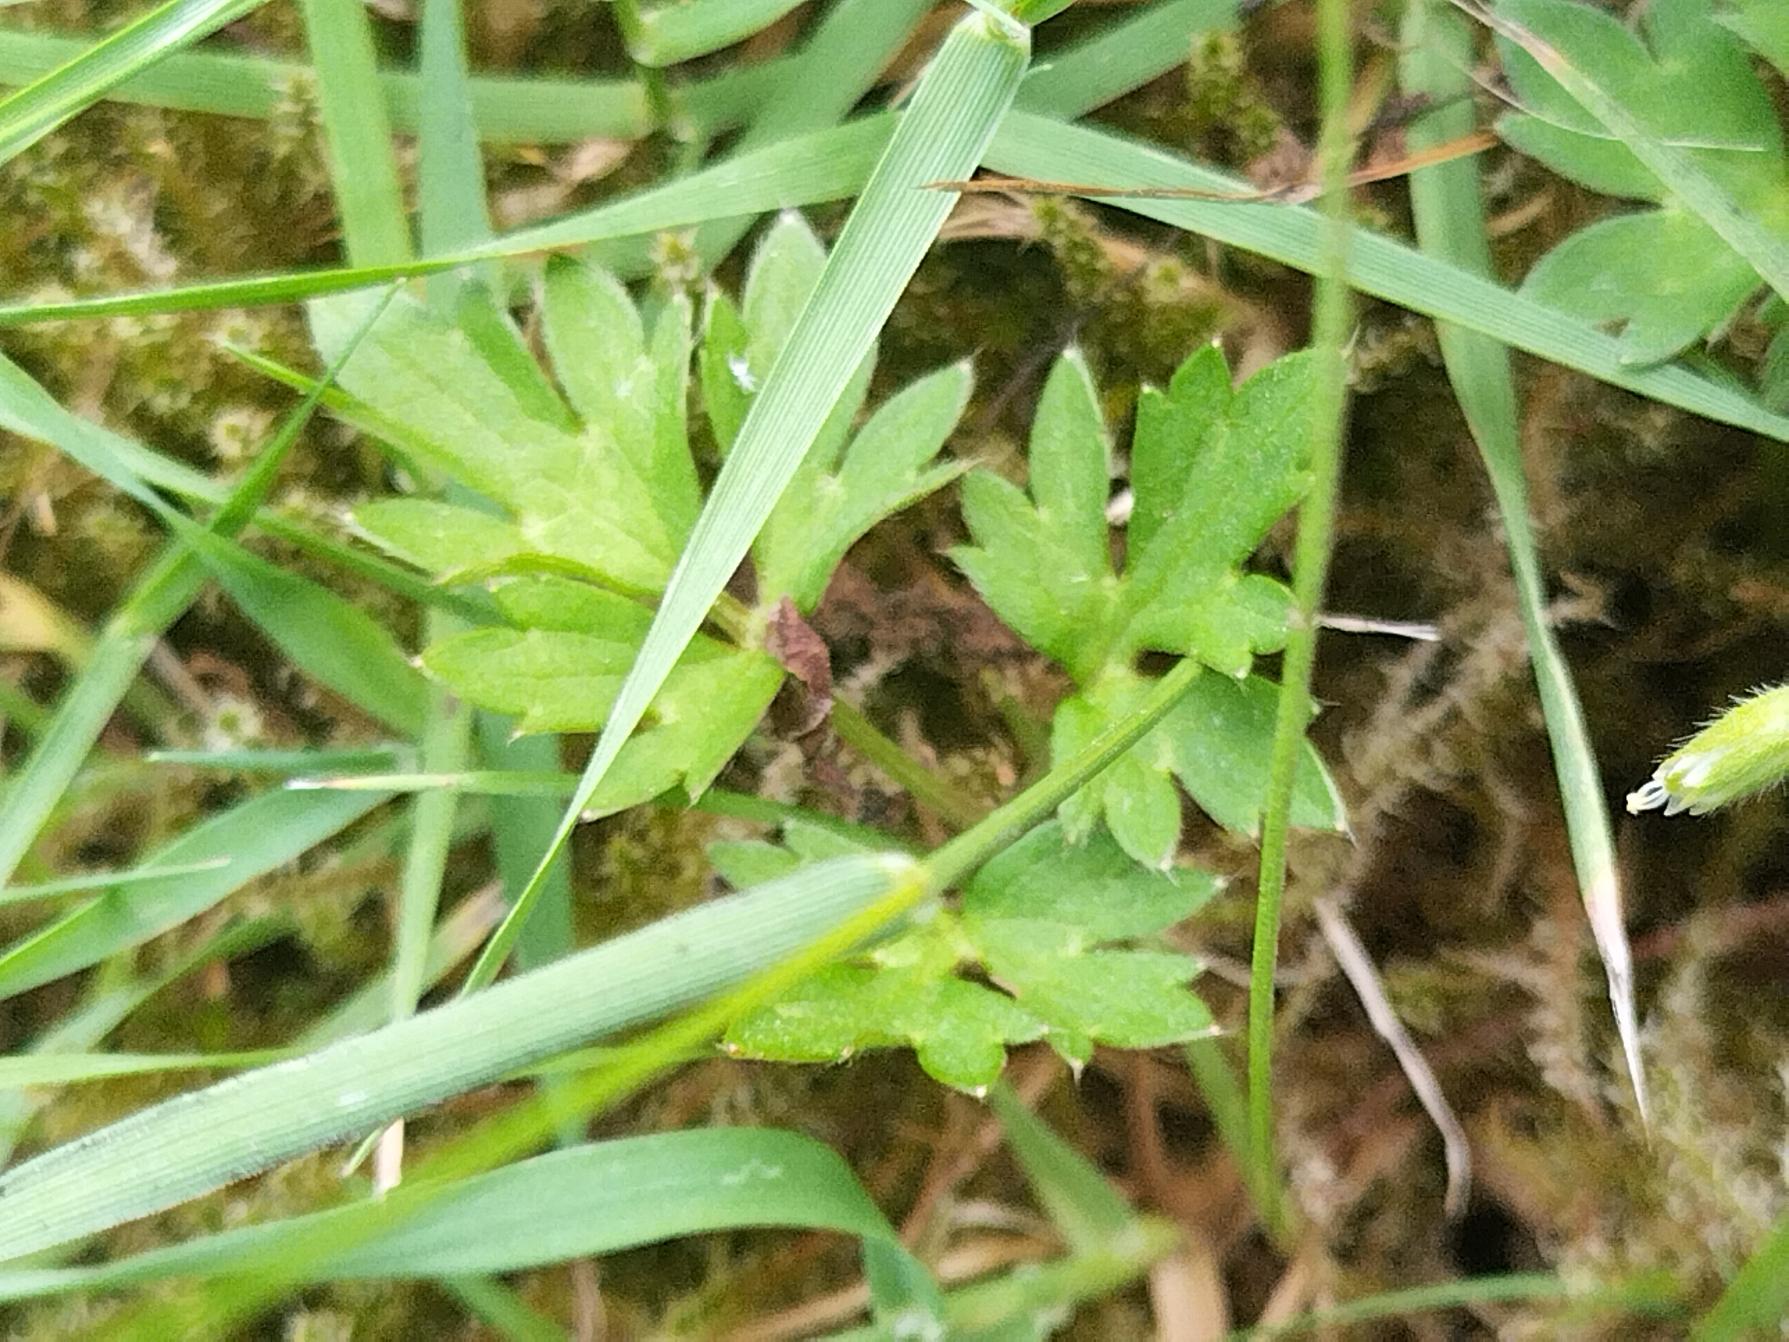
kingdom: Plantae
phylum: Tracheophyta
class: Magnoliopsida
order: Ranunculales
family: Ranunculaceae
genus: Ranunculus
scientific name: Ranunculus repens
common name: Lav ranunkel
